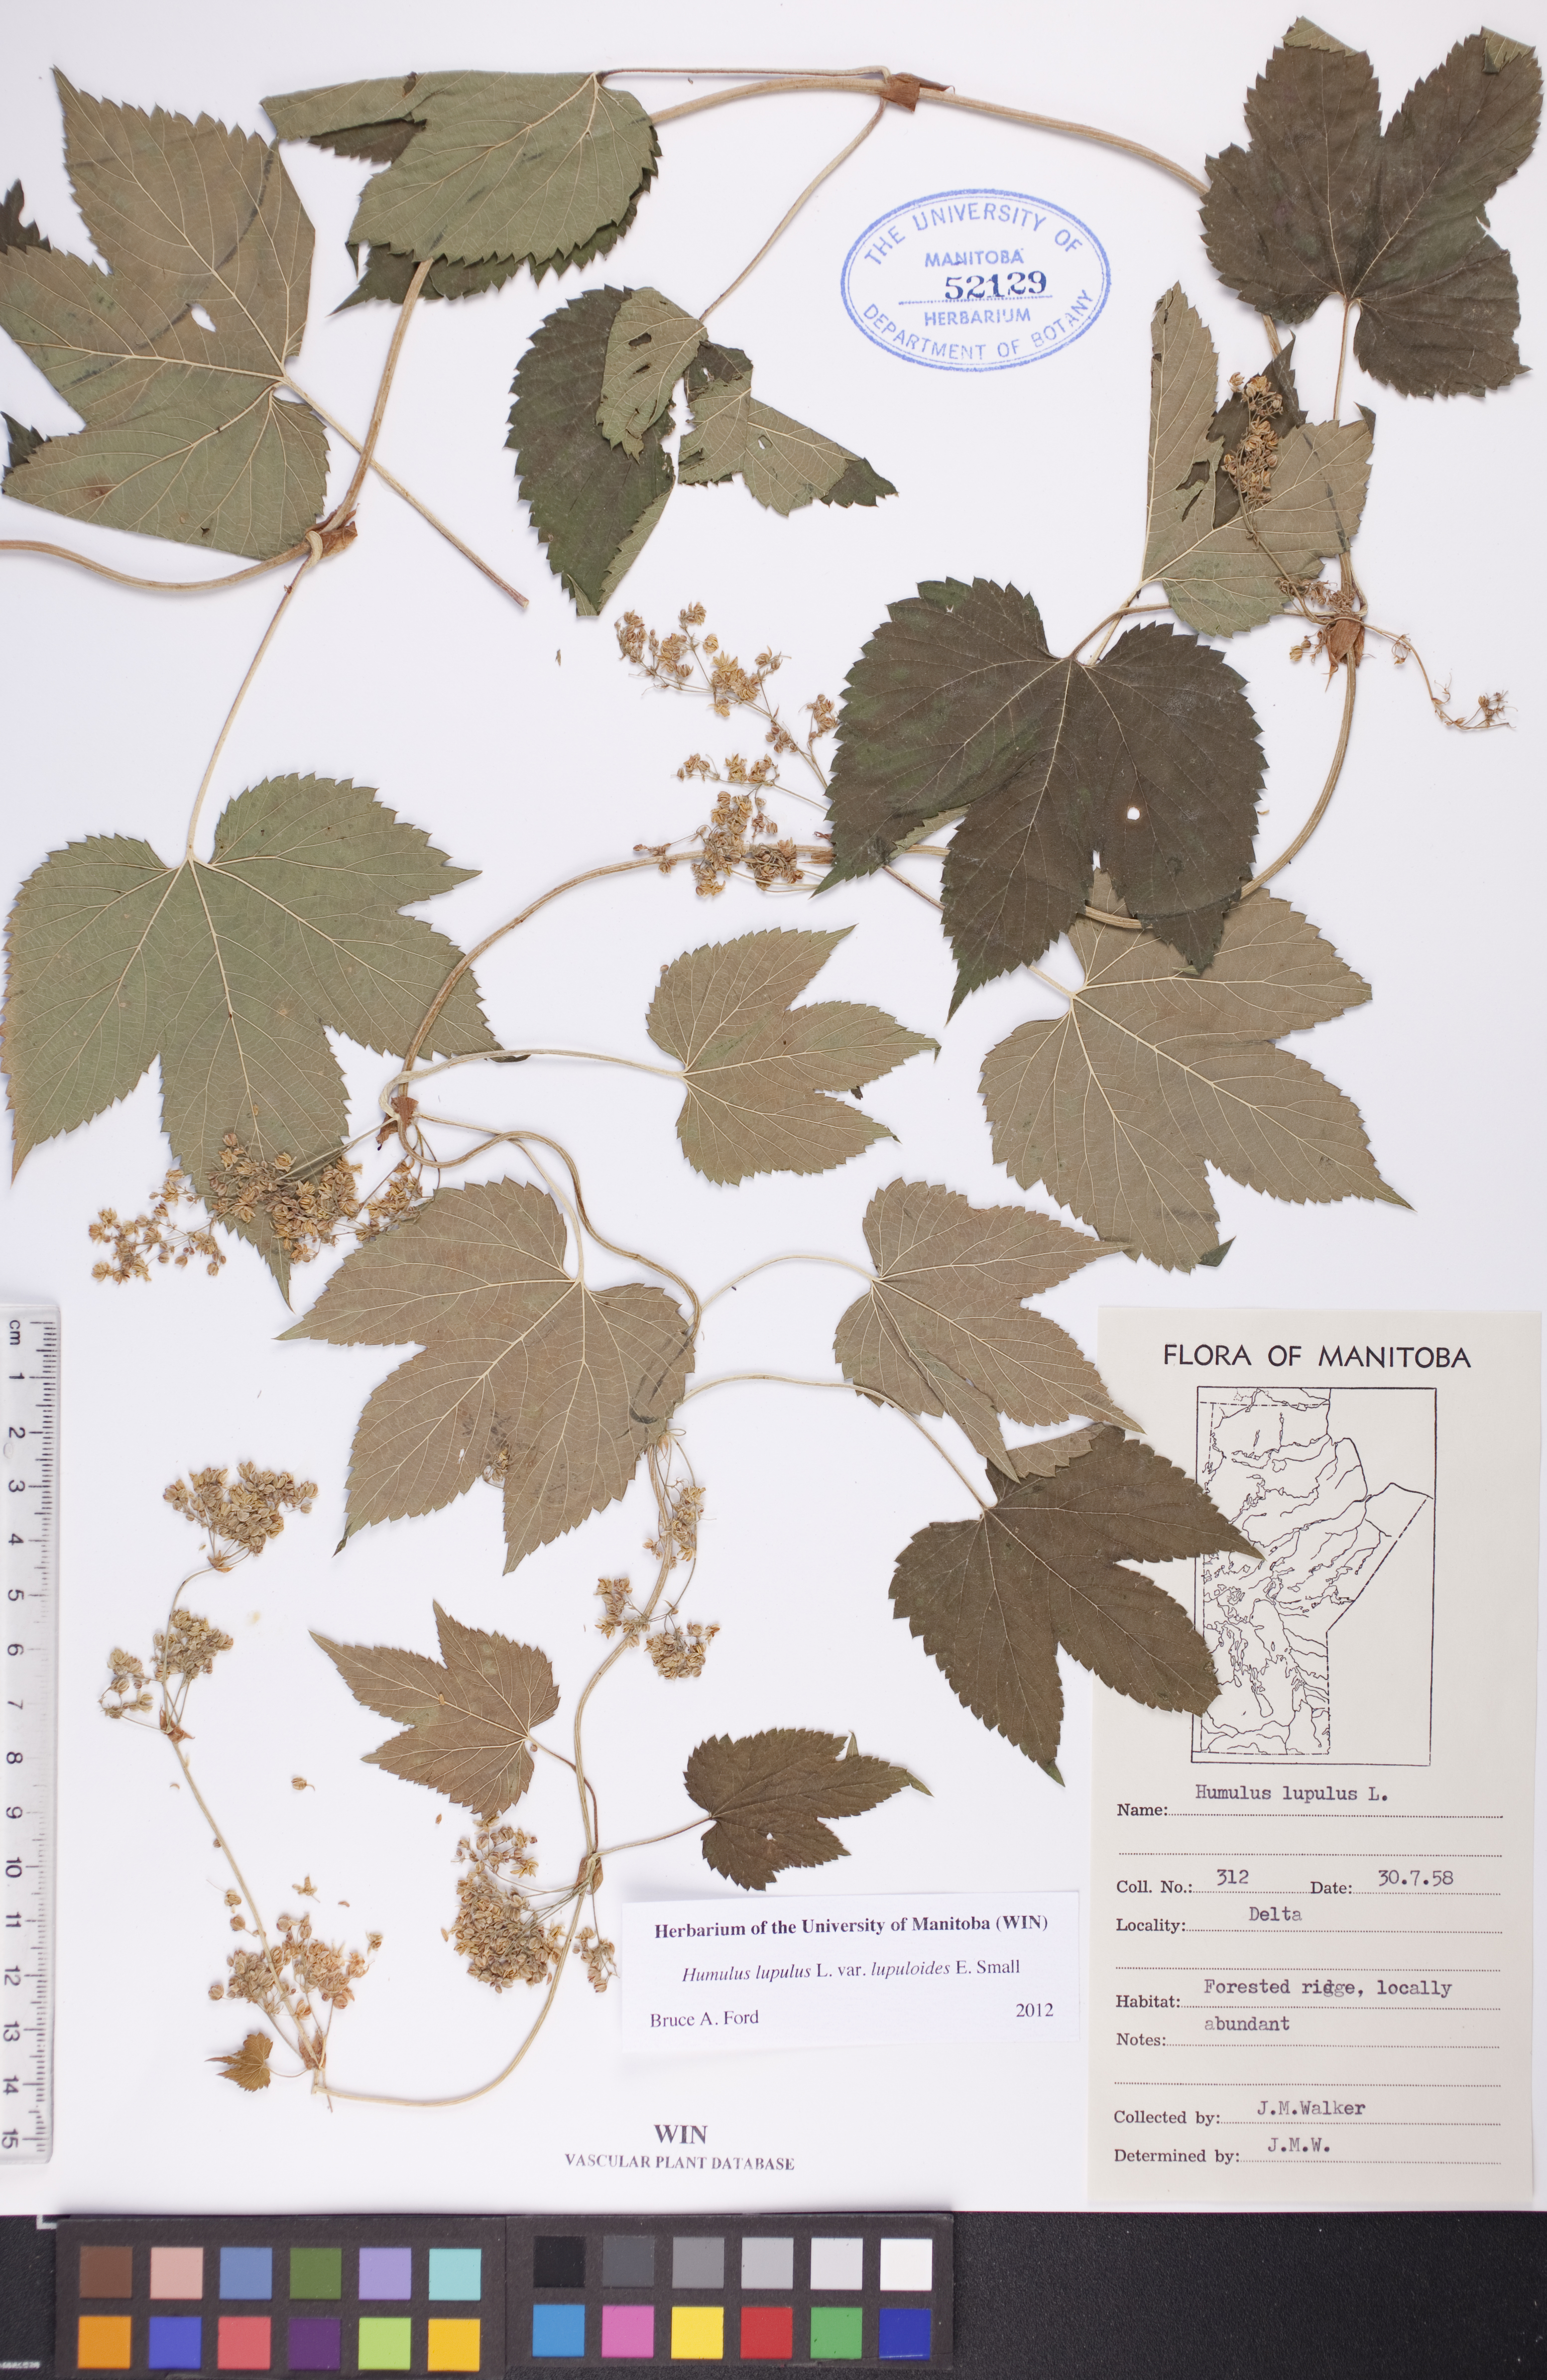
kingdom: Plantae
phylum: Tracheophyta
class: Magnoliopsida
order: Rosales
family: Cannabaceae
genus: Humulus
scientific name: Humulus americanus
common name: American hops
